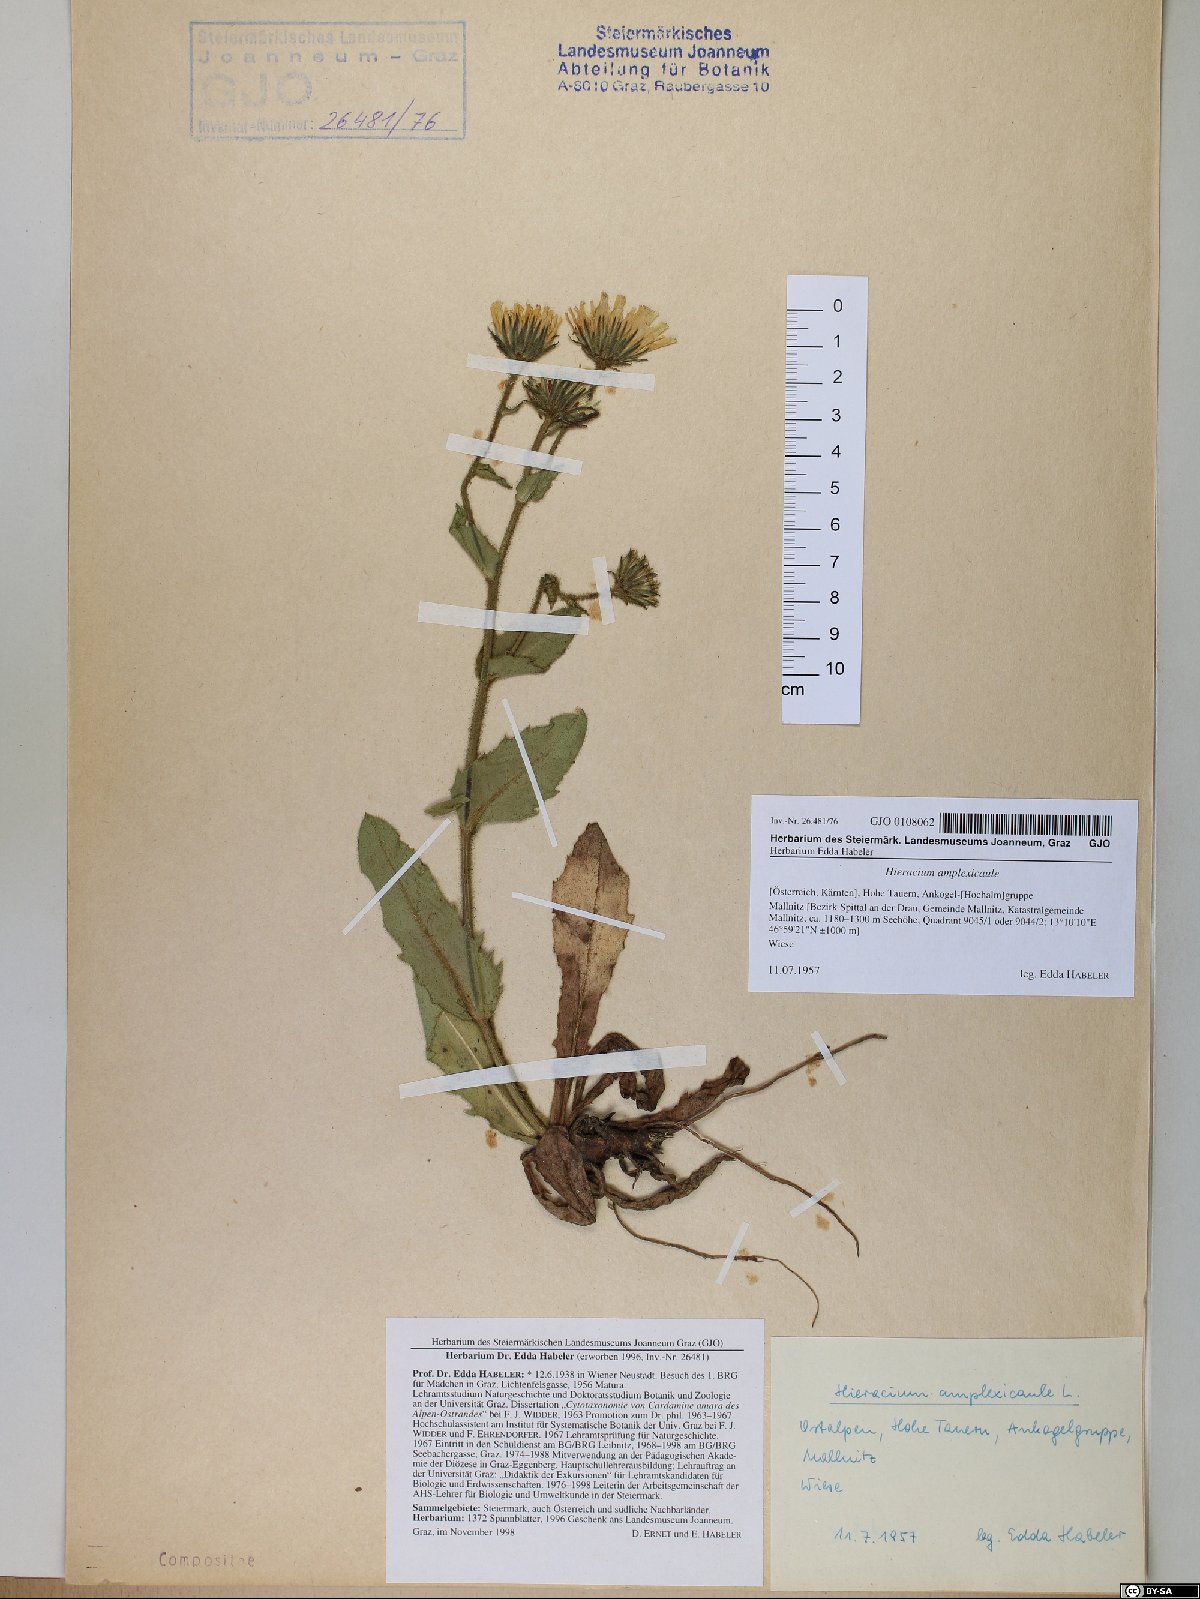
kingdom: Plantae
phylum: Tracheophyta
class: Magnoliopsida
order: Asterales
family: Asteraceae
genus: Hieracium
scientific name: Hieracium amplexicaule
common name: Sticky hawkweed
